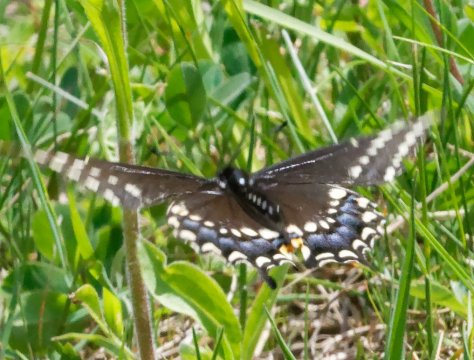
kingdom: Animalia
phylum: Arthropoda
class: Insecta
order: Lepidoptera
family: Papilionidae
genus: Papilio
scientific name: Papilio polyxenes
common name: Black Swallowtail
